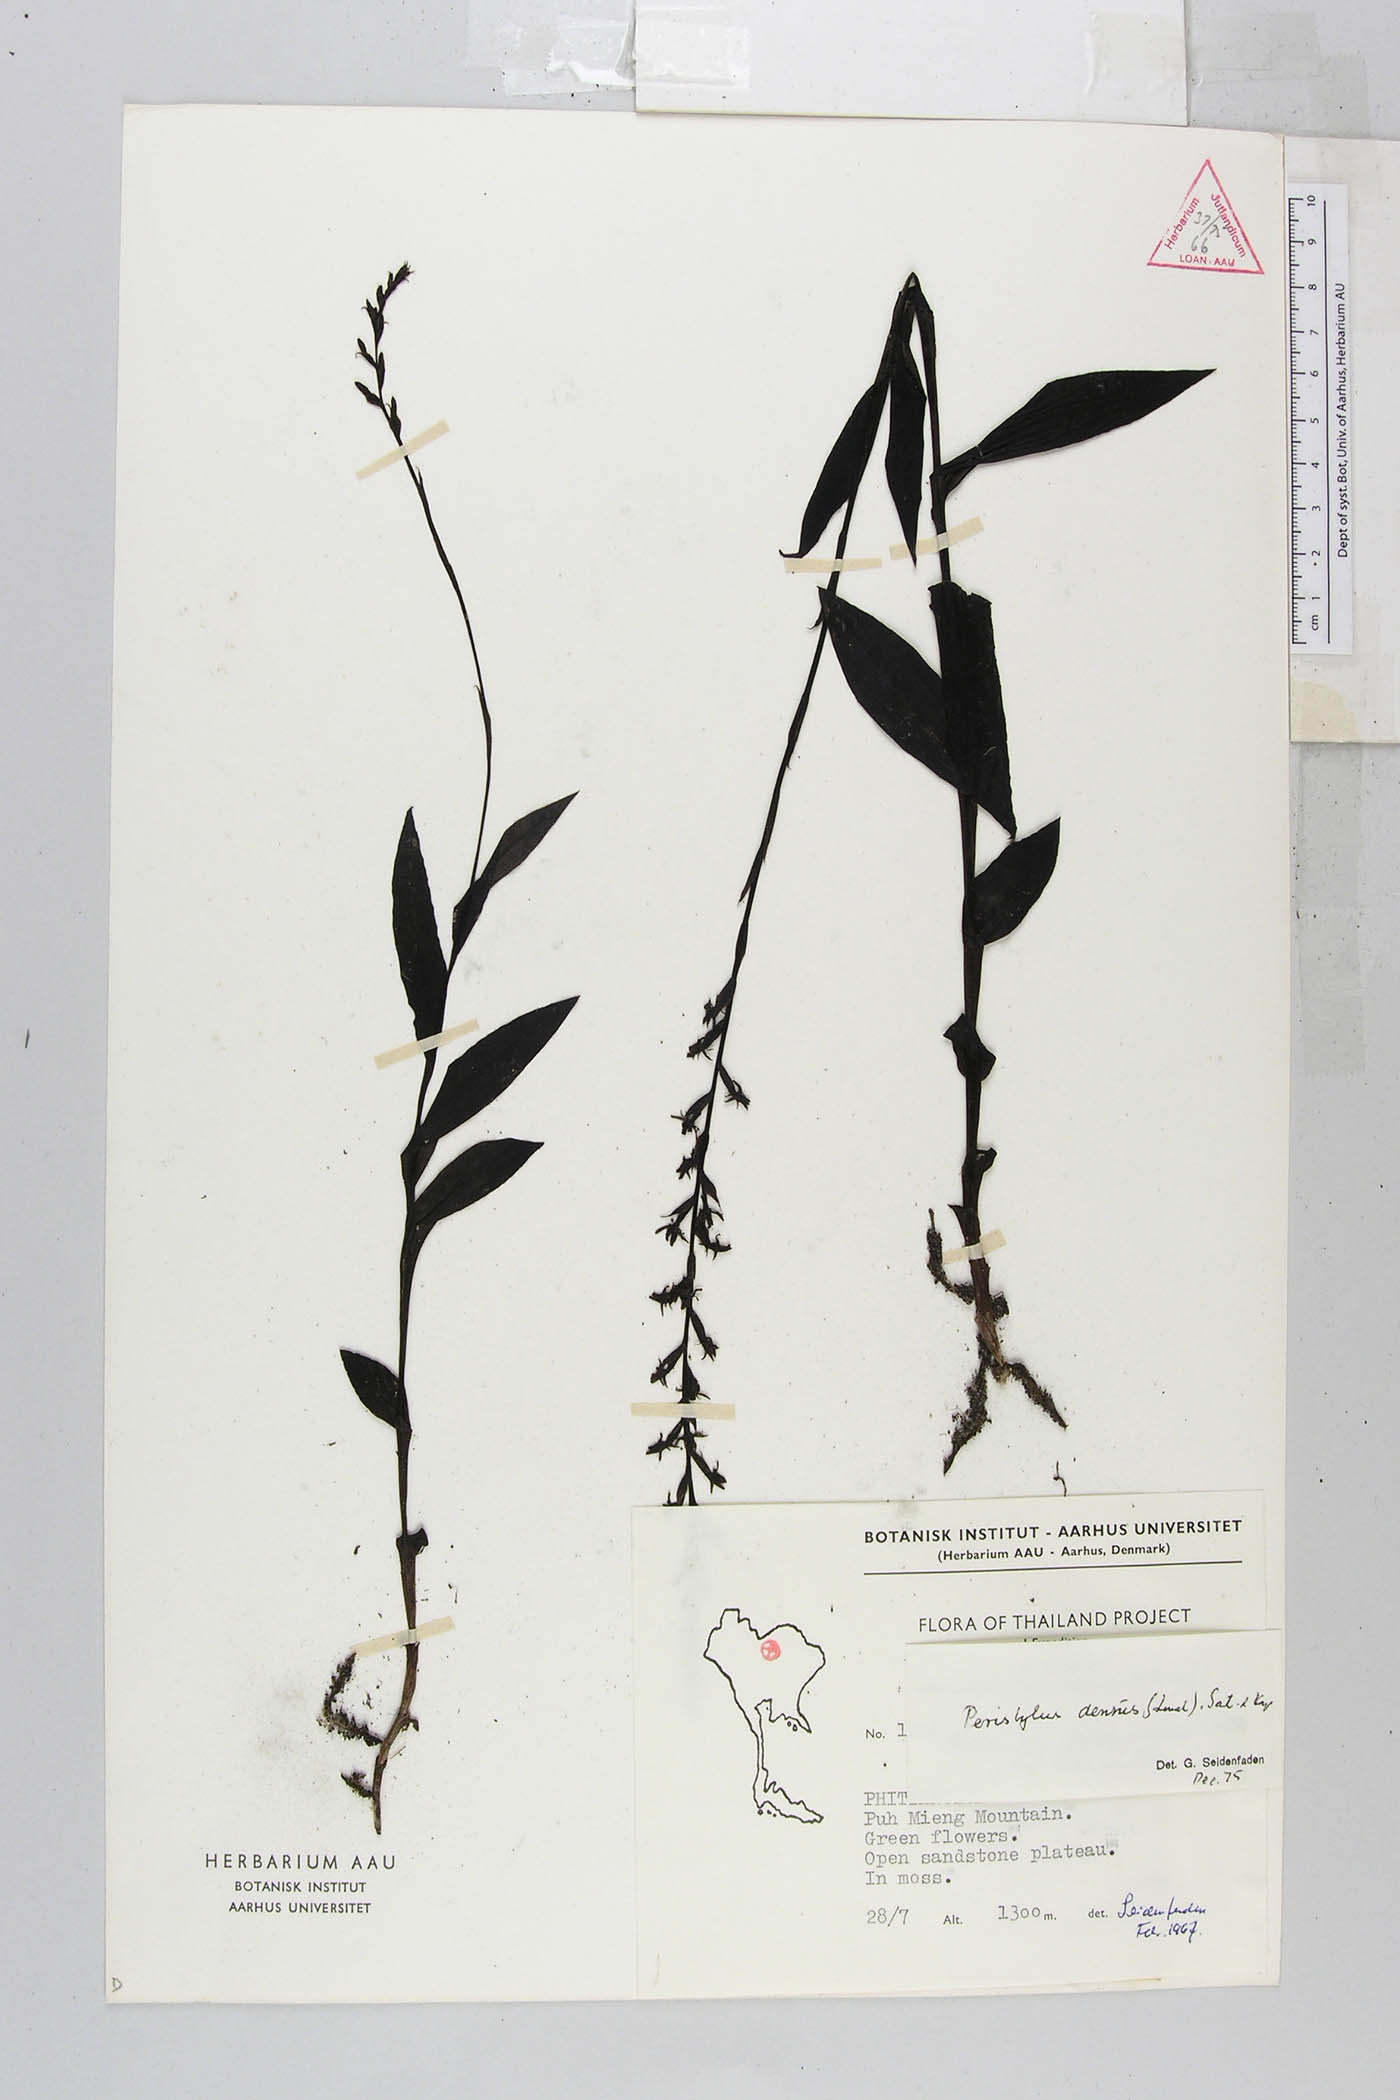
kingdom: Plantae
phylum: Tracheophyta
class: Liliopsida
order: Asparagales
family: Orchidaceae
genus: Peristylus
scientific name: Peristylus densus
